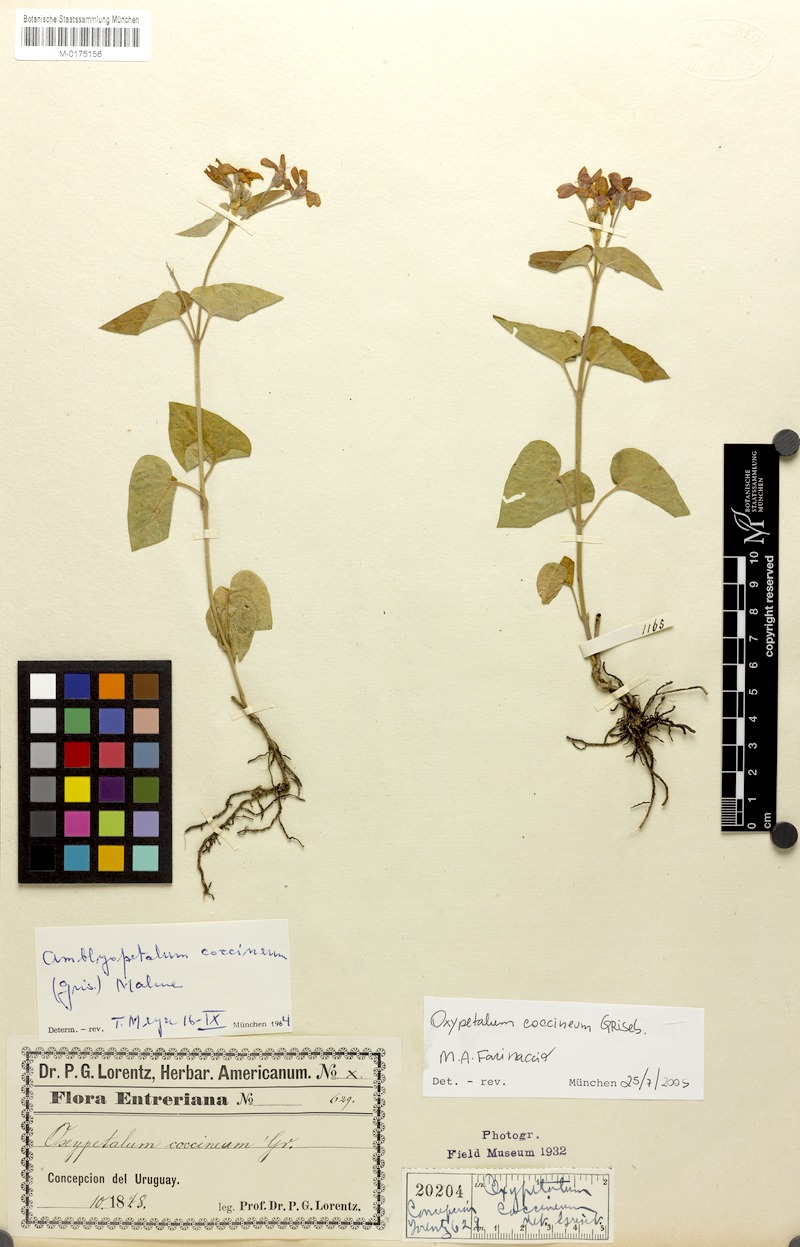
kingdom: Plantae
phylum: Tracheophyta
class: Magnoliopsida
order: Gentianales
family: Apocynaceae
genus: Oxypetalum
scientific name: Oxypetalum coccineum
